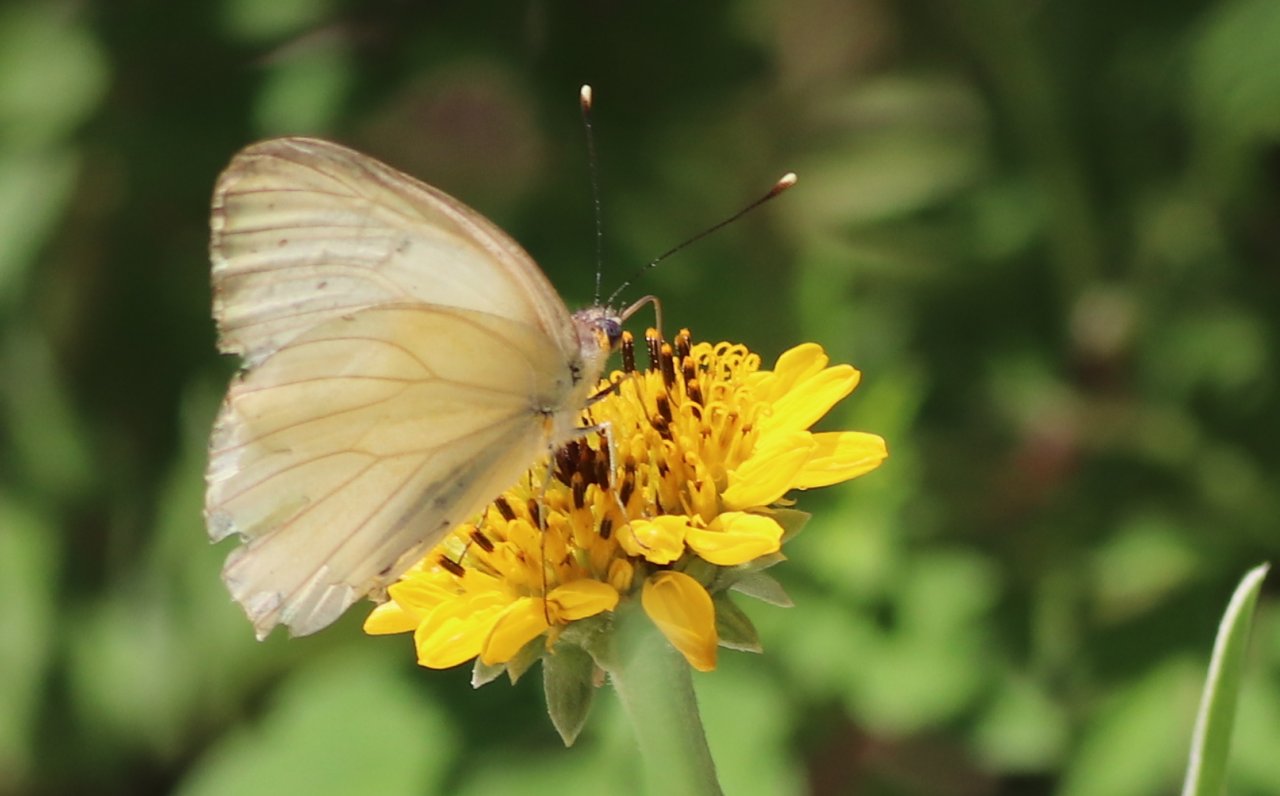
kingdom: Animalia
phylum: Arthropoda
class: Insecta
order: Lepidoptera
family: Pieridae
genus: Ascia
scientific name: Ascia monuste
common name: Great Southern White
